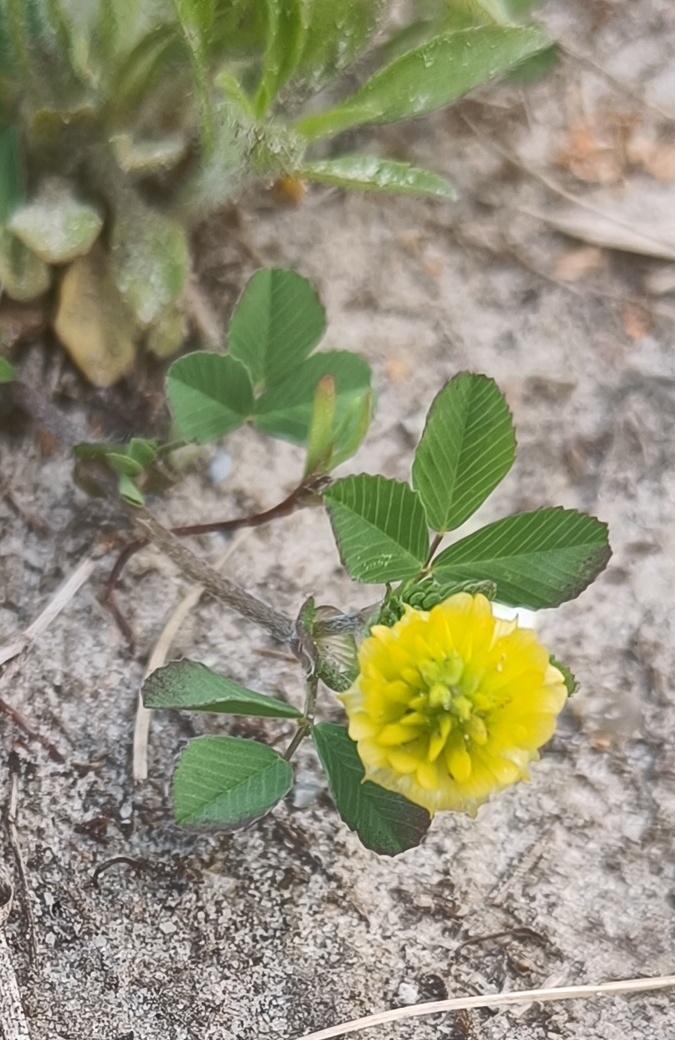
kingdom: Plantae
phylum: Tracheophyta
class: Magnoliopsida
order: Fabales
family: Fabaceae
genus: Trifolium
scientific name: Trifolium campestre
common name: Gul kløver
